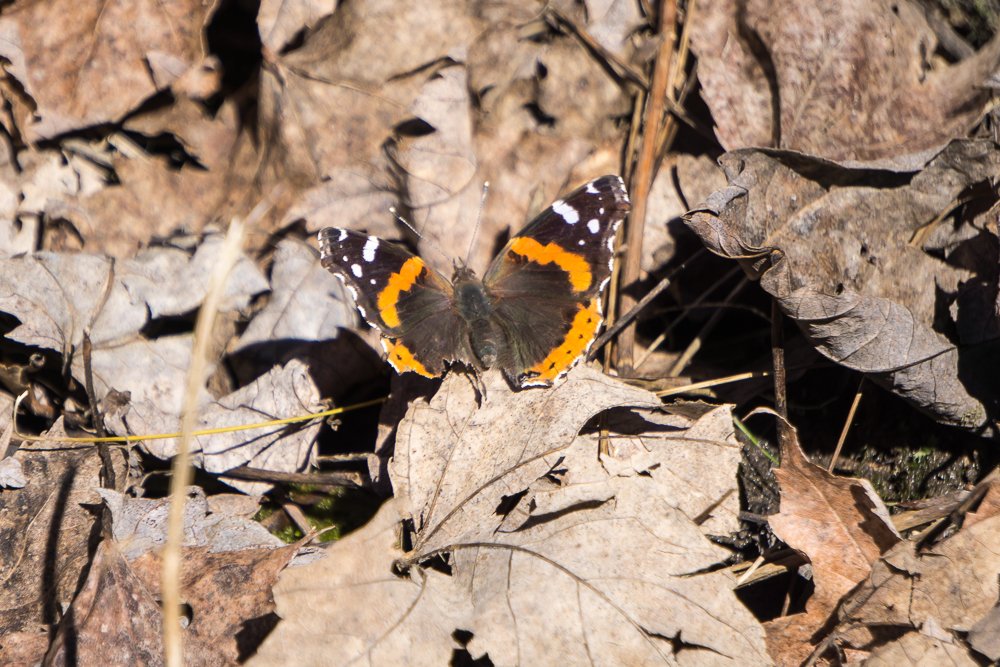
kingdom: Animalia
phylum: Arthropoda
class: Insecta
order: Lepidoptera
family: Nymphalidae
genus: Vanessa
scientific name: Vanessa atalanta
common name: Red Admiral
